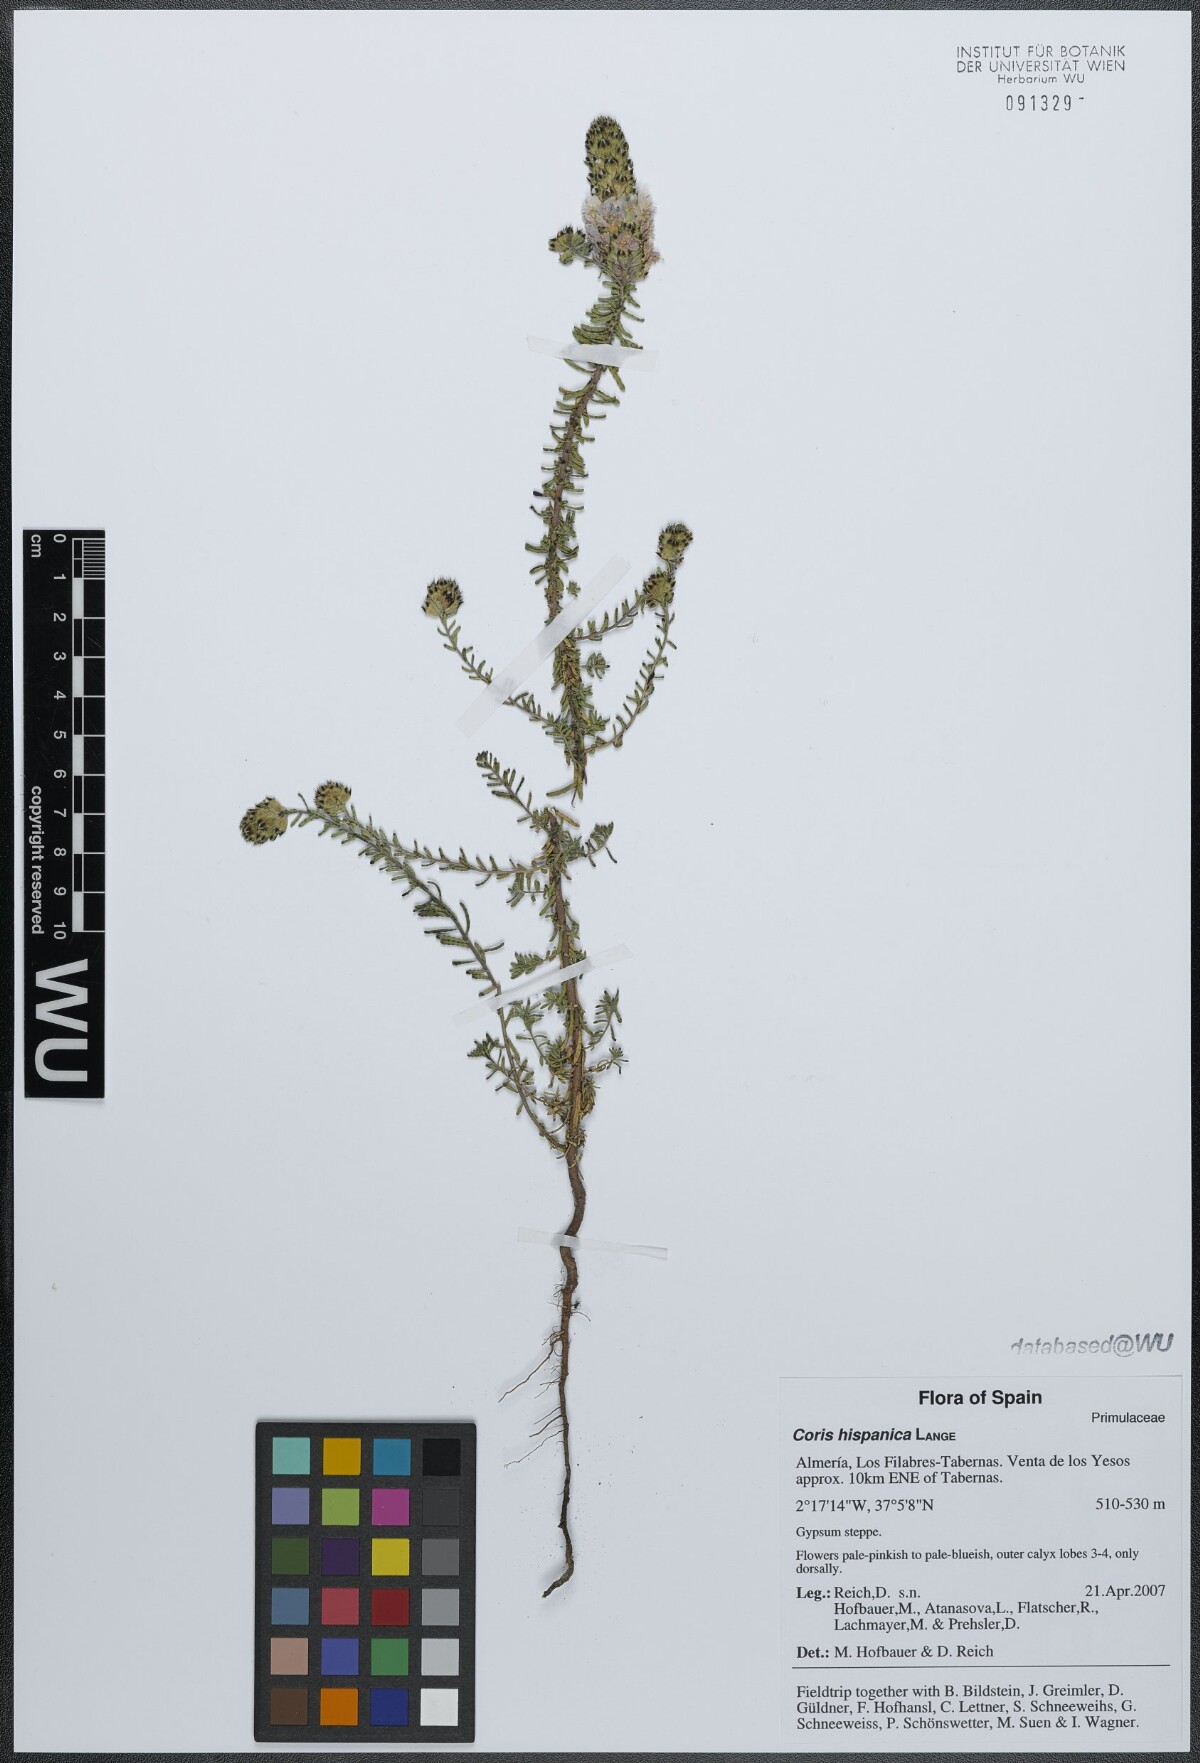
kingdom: Plantae
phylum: Tracheophyta
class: Magnoliopsida
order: Ericales
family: Primulaceae
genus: Coris
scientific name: Coris monspeliensis
